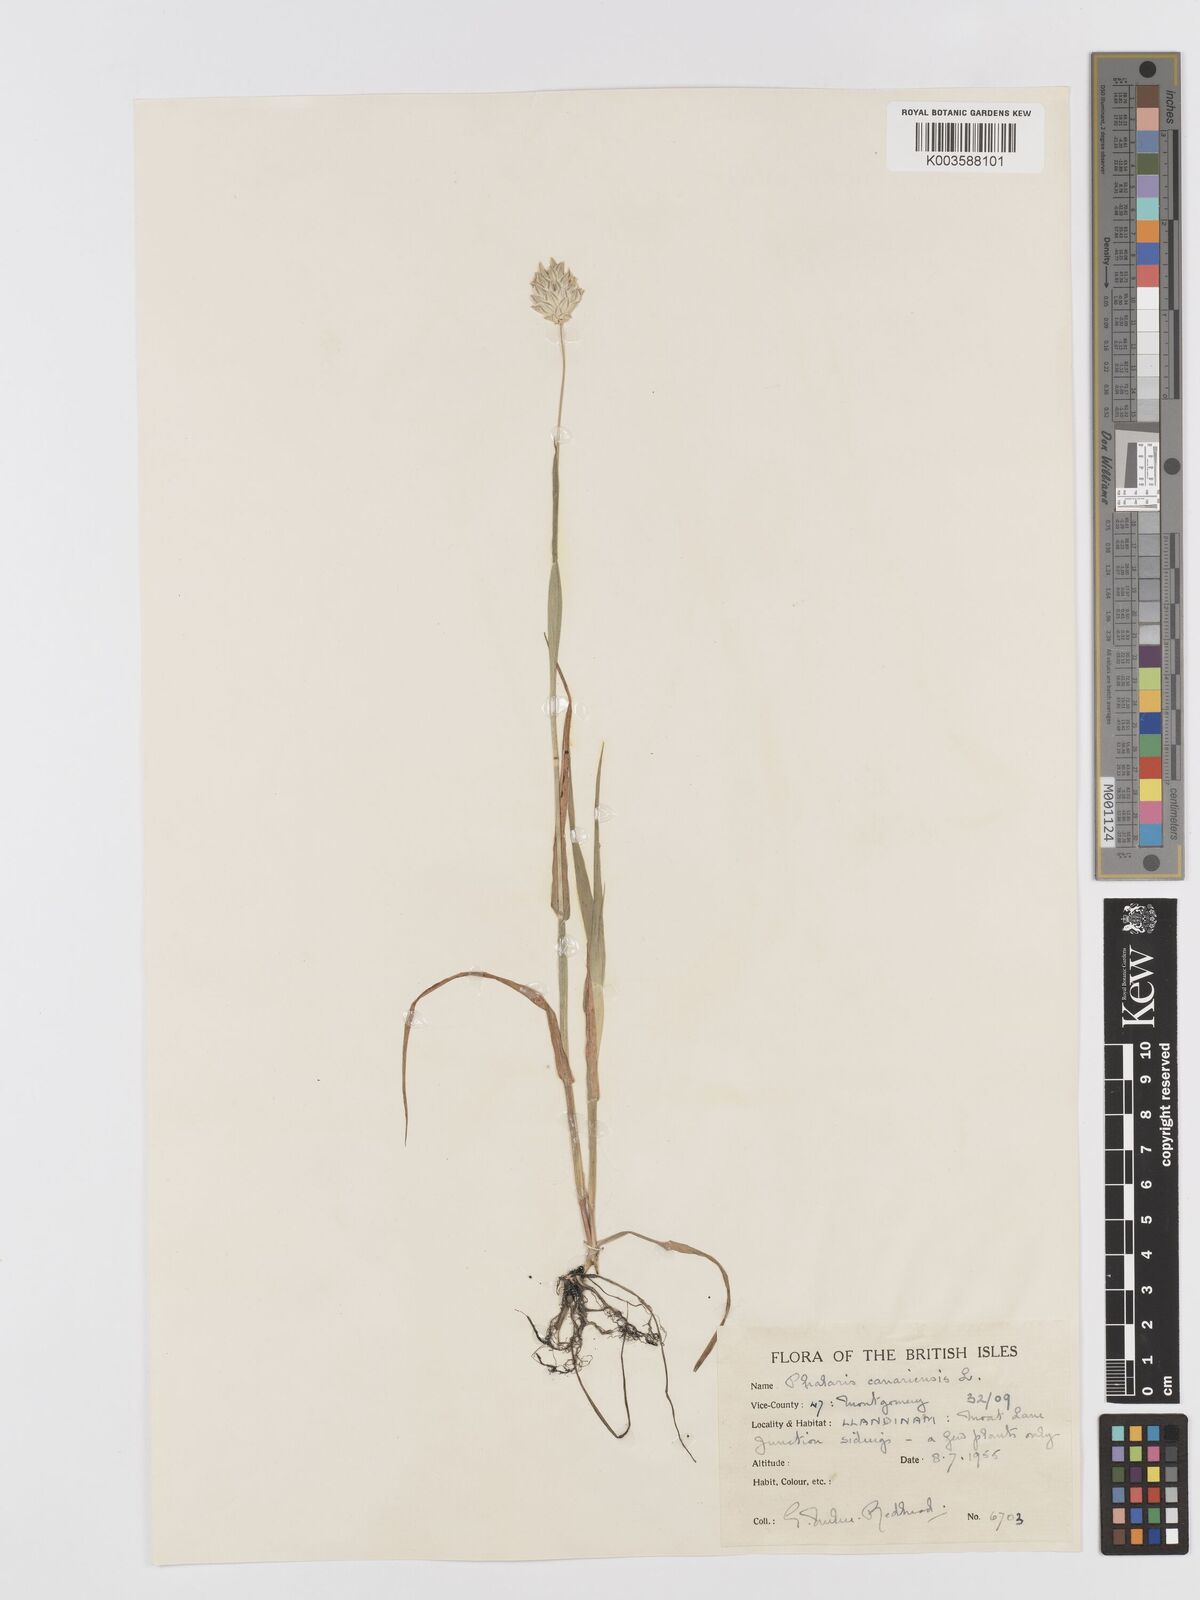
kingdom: Plantae
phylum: Tracheophyta
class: Liliopsida
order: Poales
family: Poaceae
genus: Phalaris
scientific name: Phalaris canariensis
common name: Annual canarygrass
